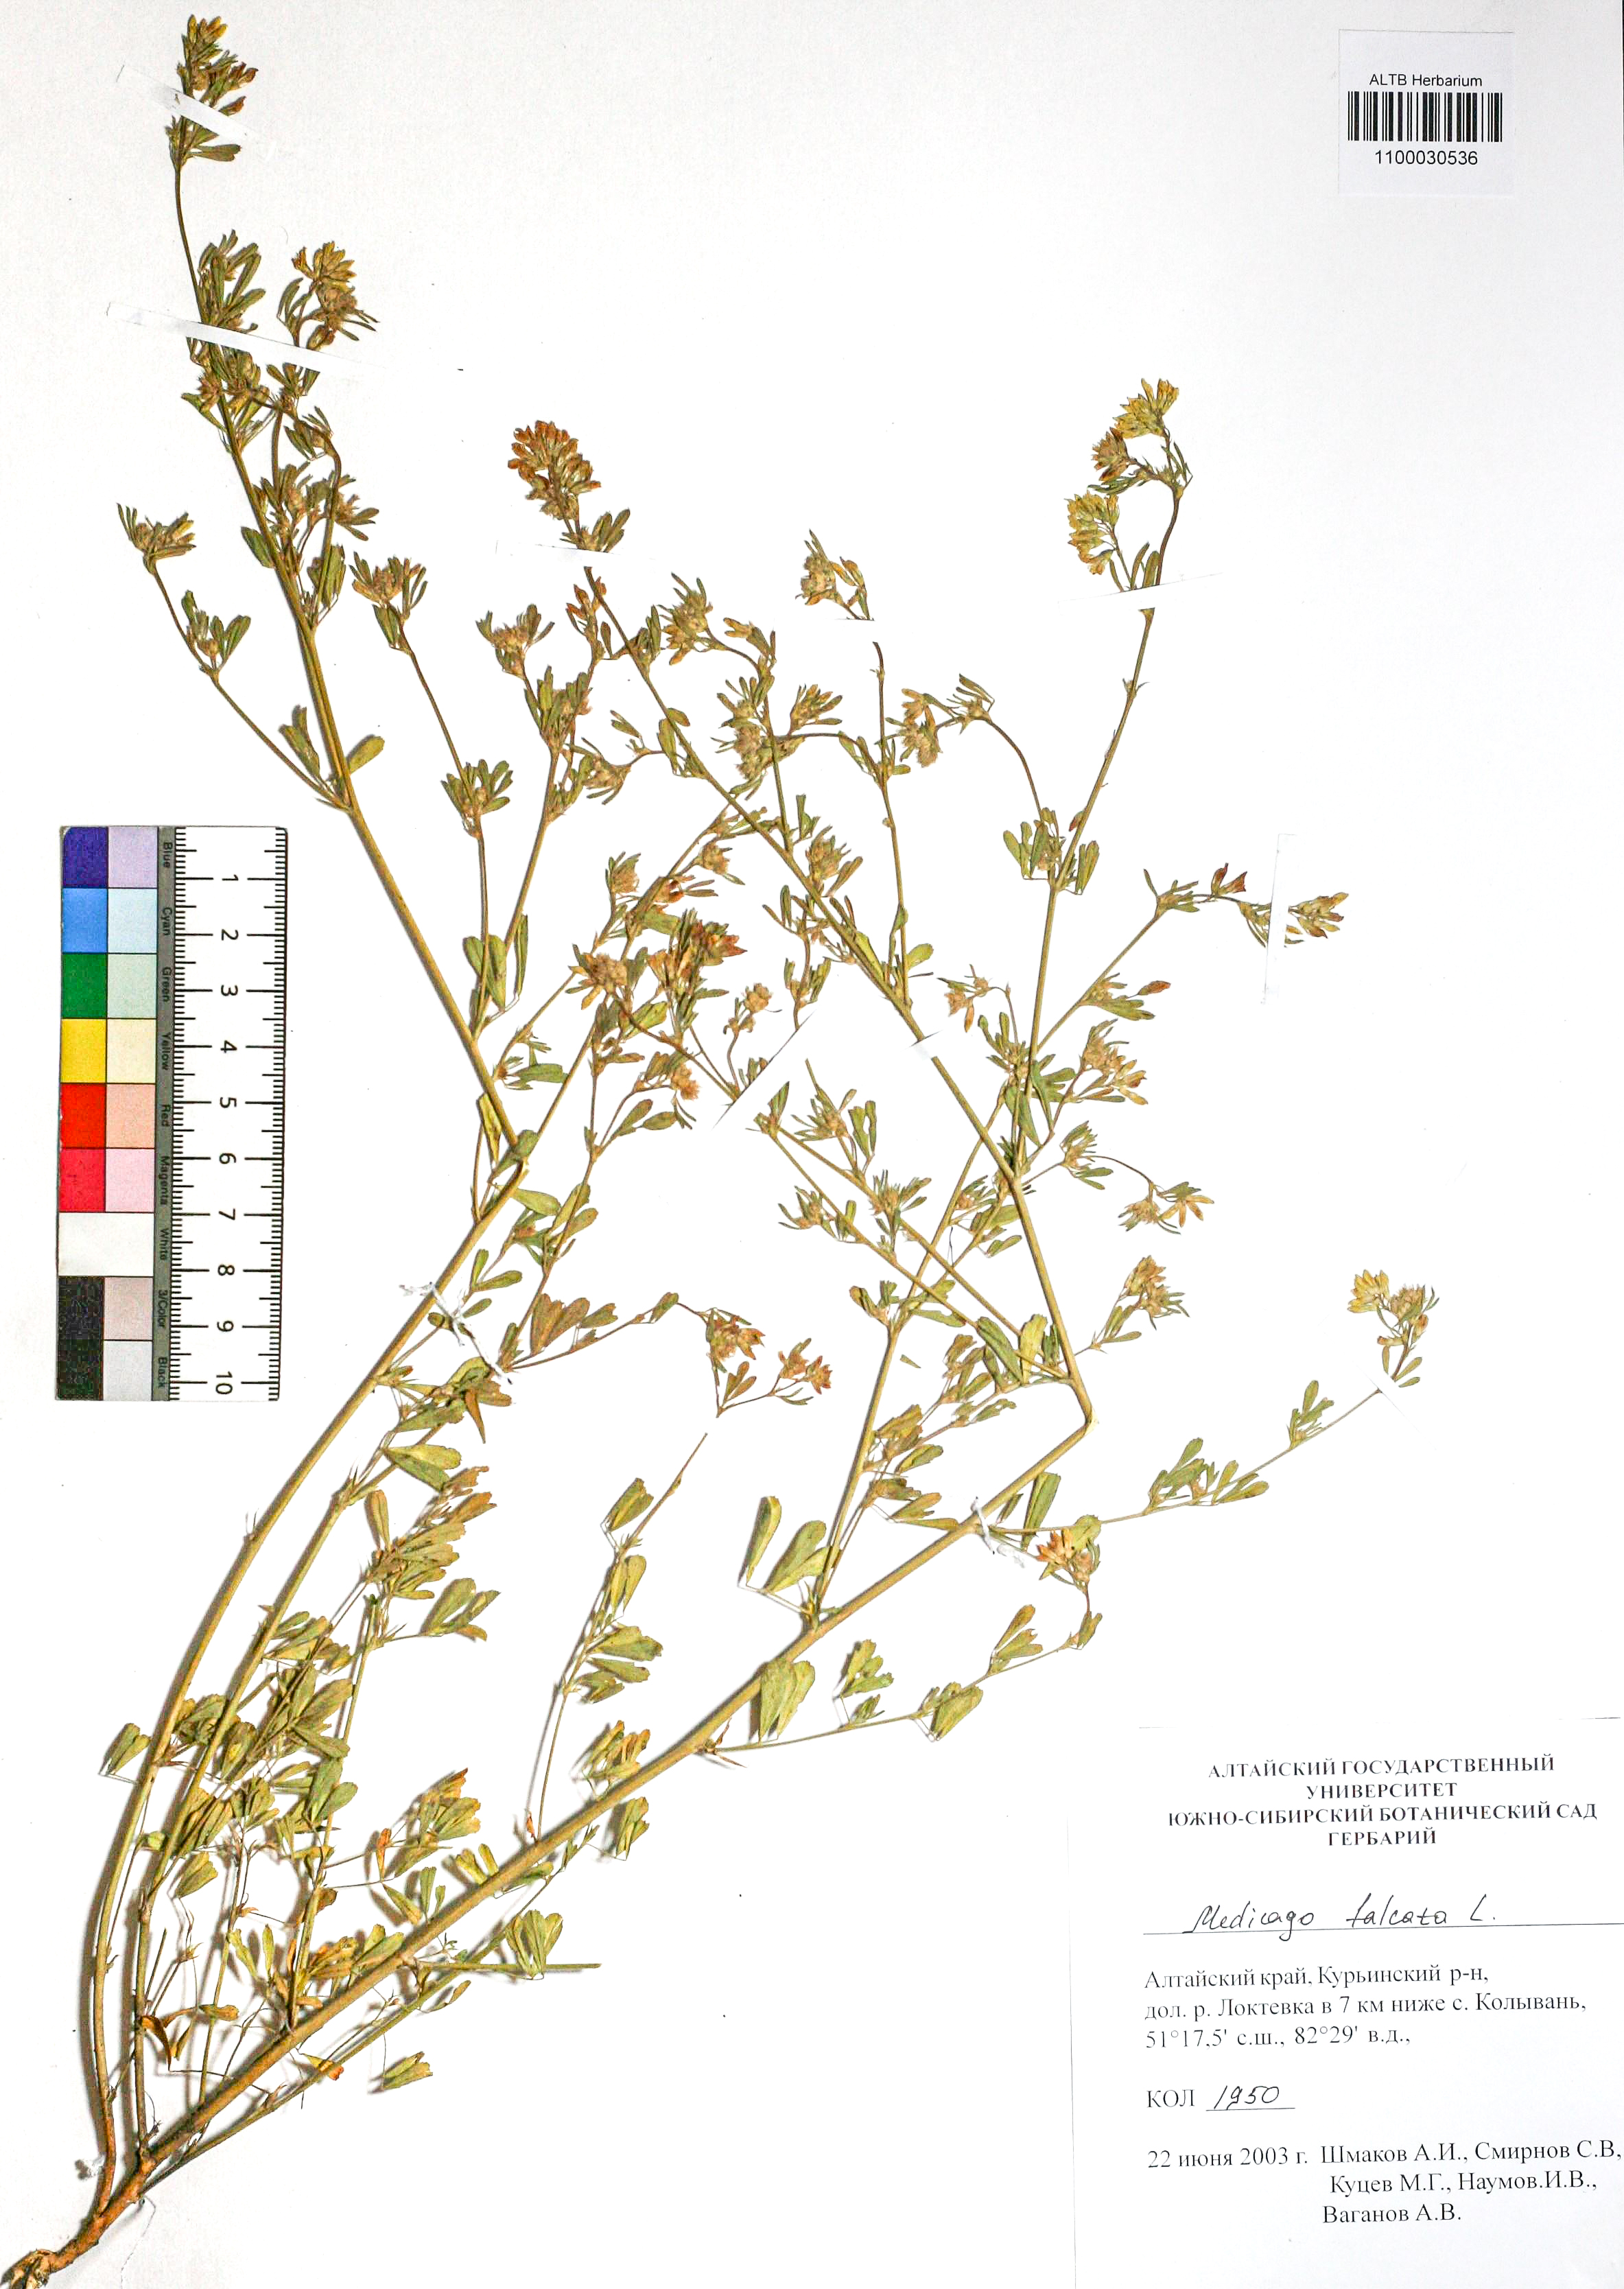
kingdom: Plantae
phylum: Tracheophyta
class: Magnoliopsida
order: Fabales
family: Fabaceae
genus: Medicago
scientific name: Medicago falcata
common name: Sickle medick
